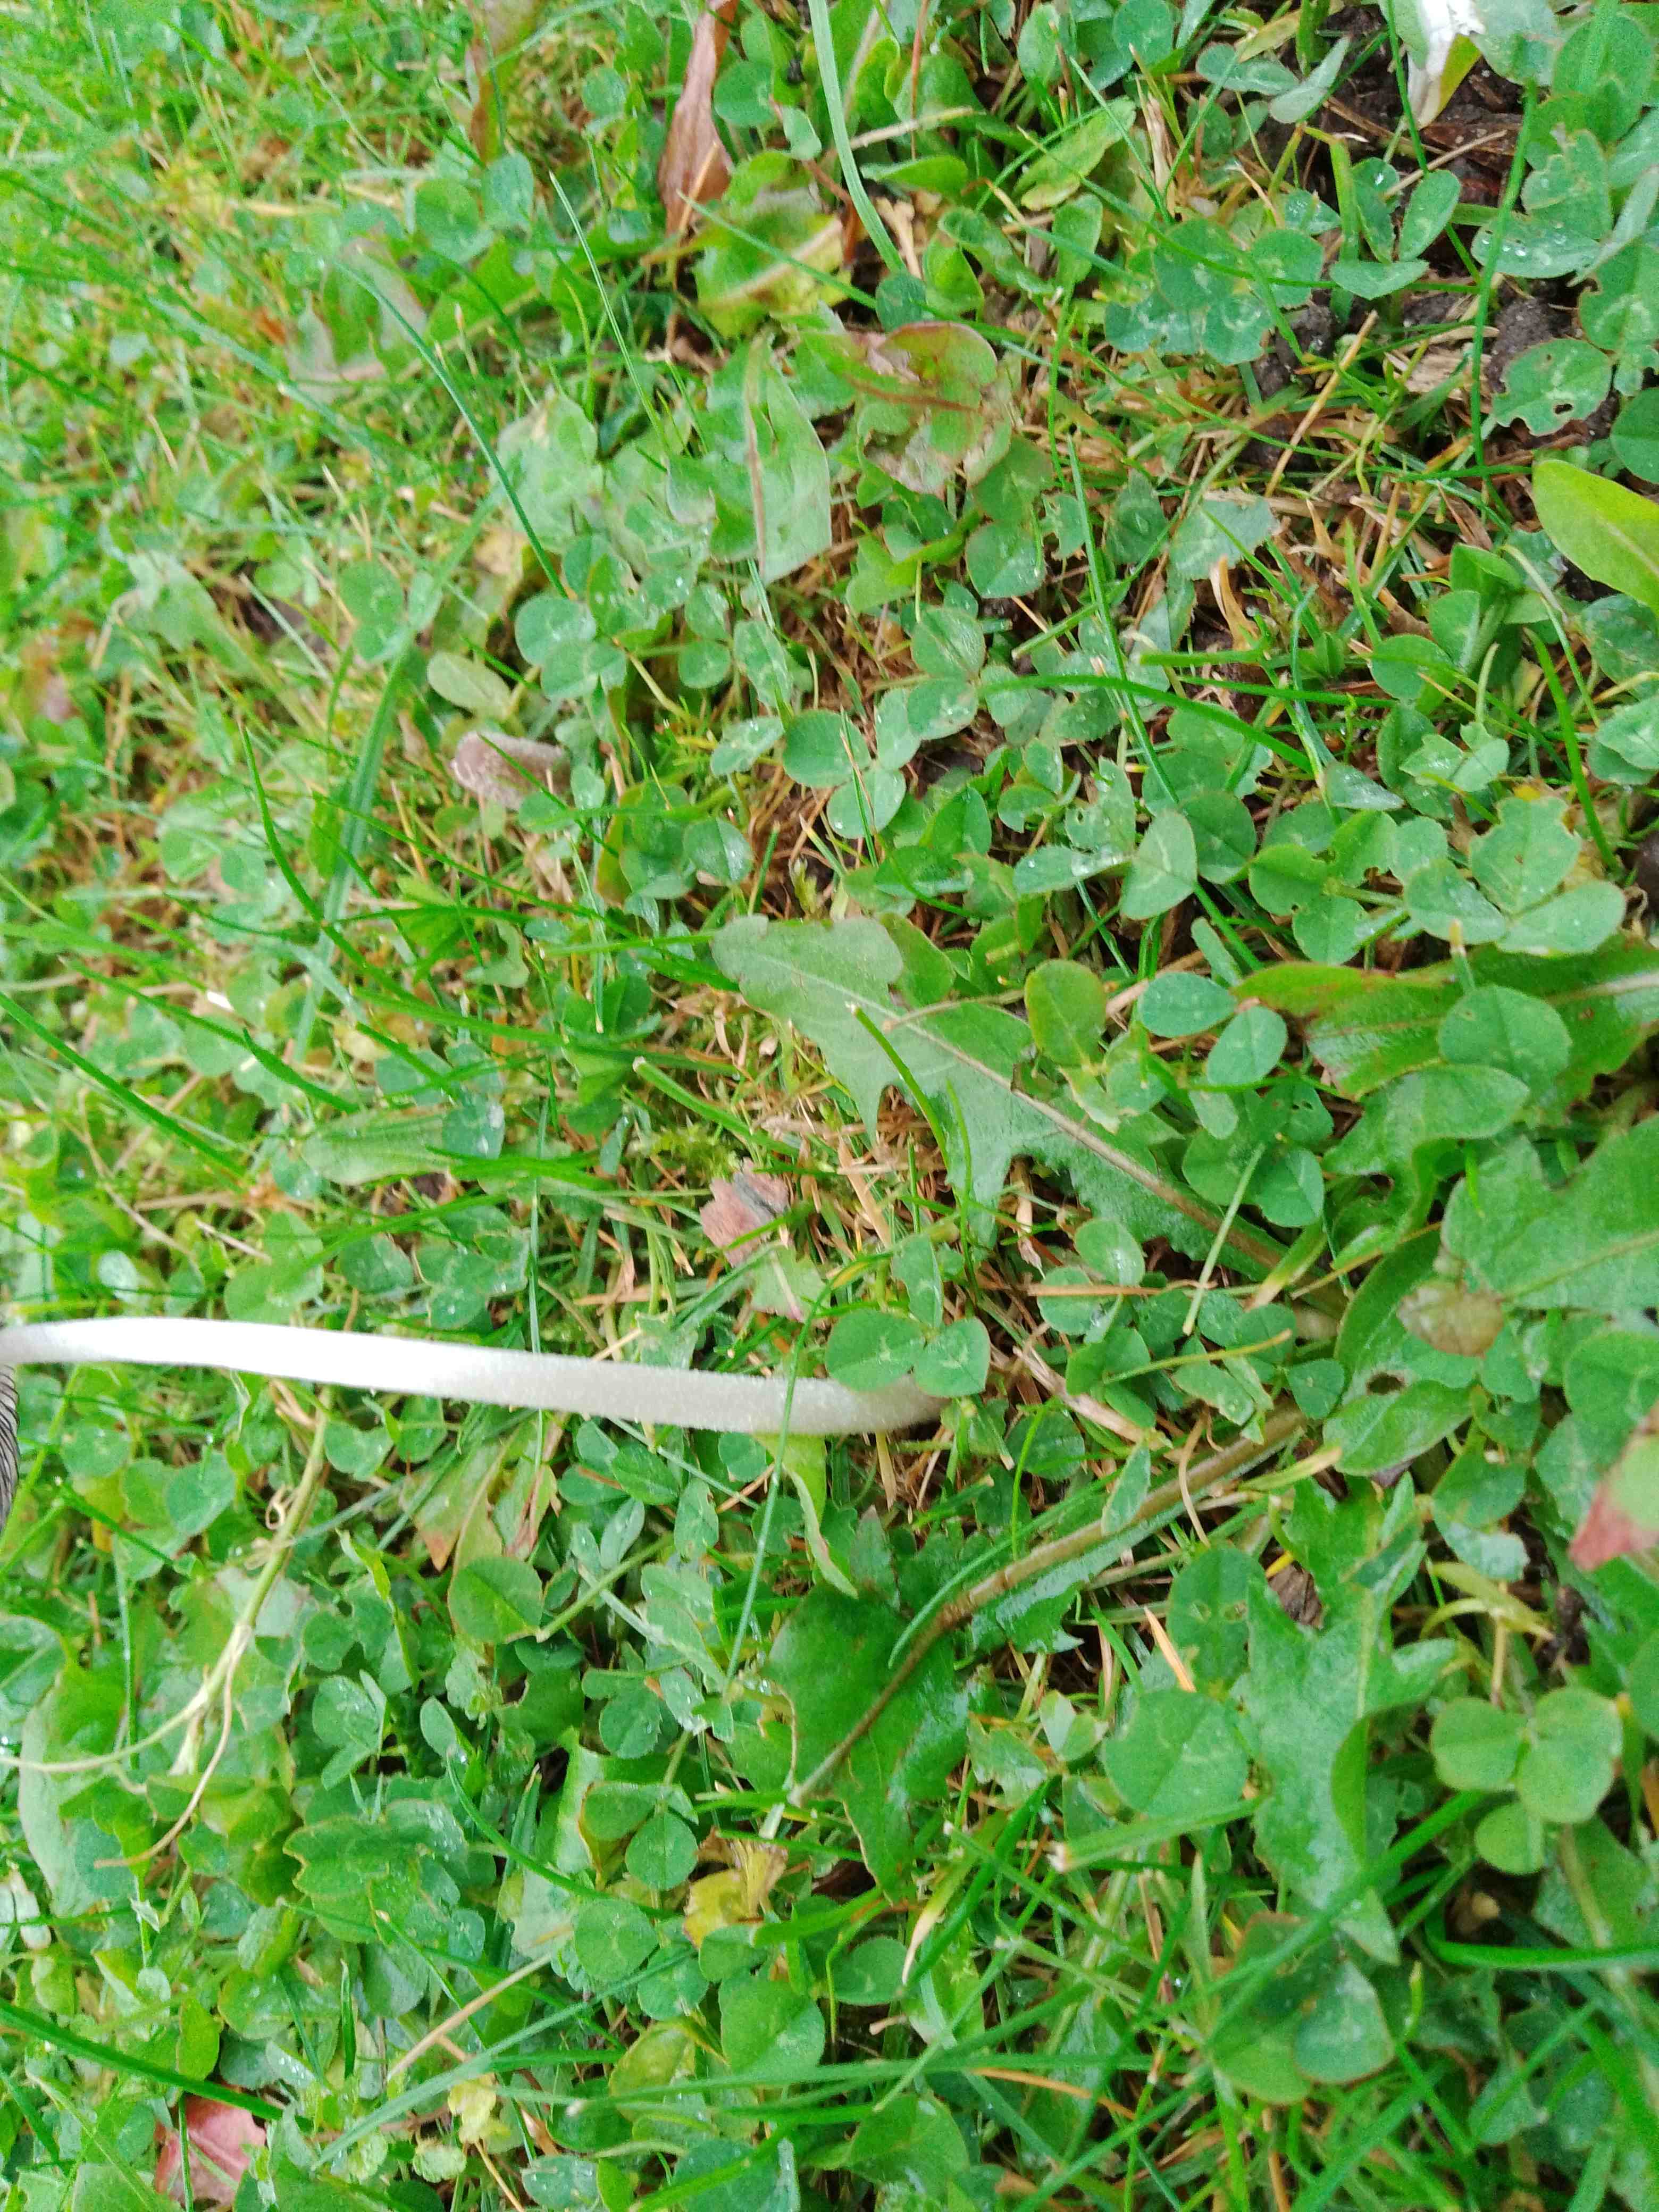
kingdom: Fungi
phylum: Basidiomycota
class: Agaricomycetes
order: Agaricales
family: Psathyrellaceae
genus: Coprinopsis
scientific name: Coprinopsis lagopus
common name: dunstokket blækhat
